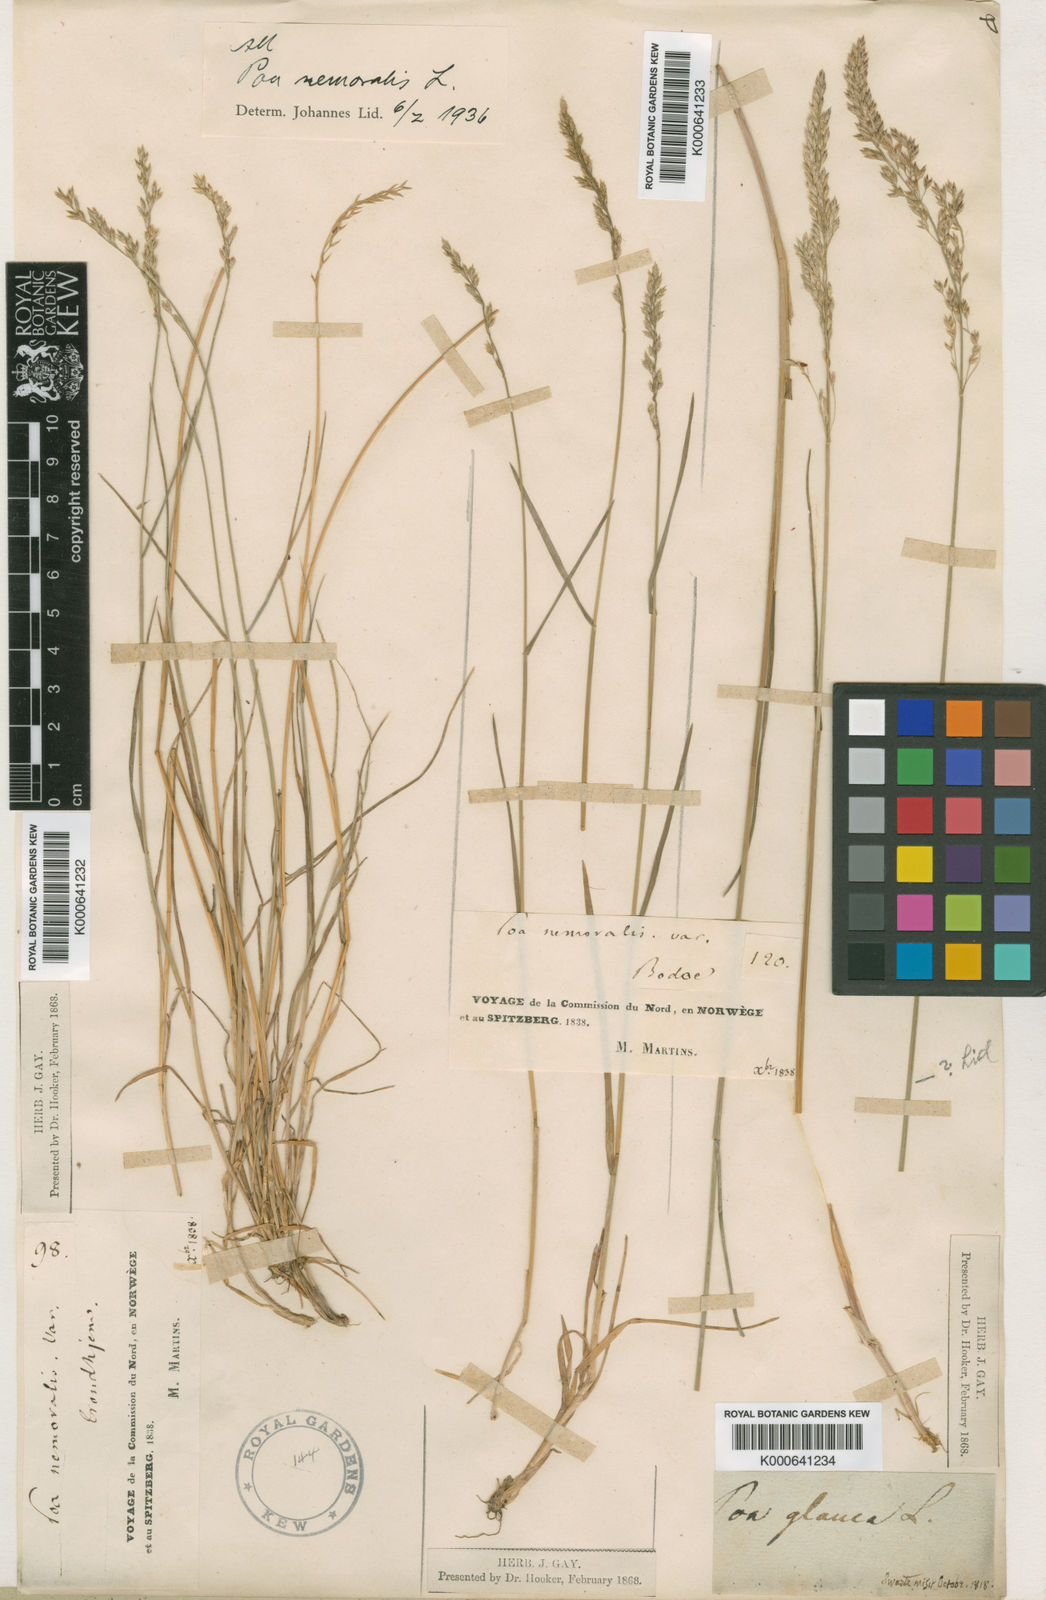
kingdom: Plantae
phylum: Tracheophyta
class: Liliopsida
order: Poales
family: Poaceae
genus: Poa
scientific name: Poa nemoralis
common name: Wood bluegrass
